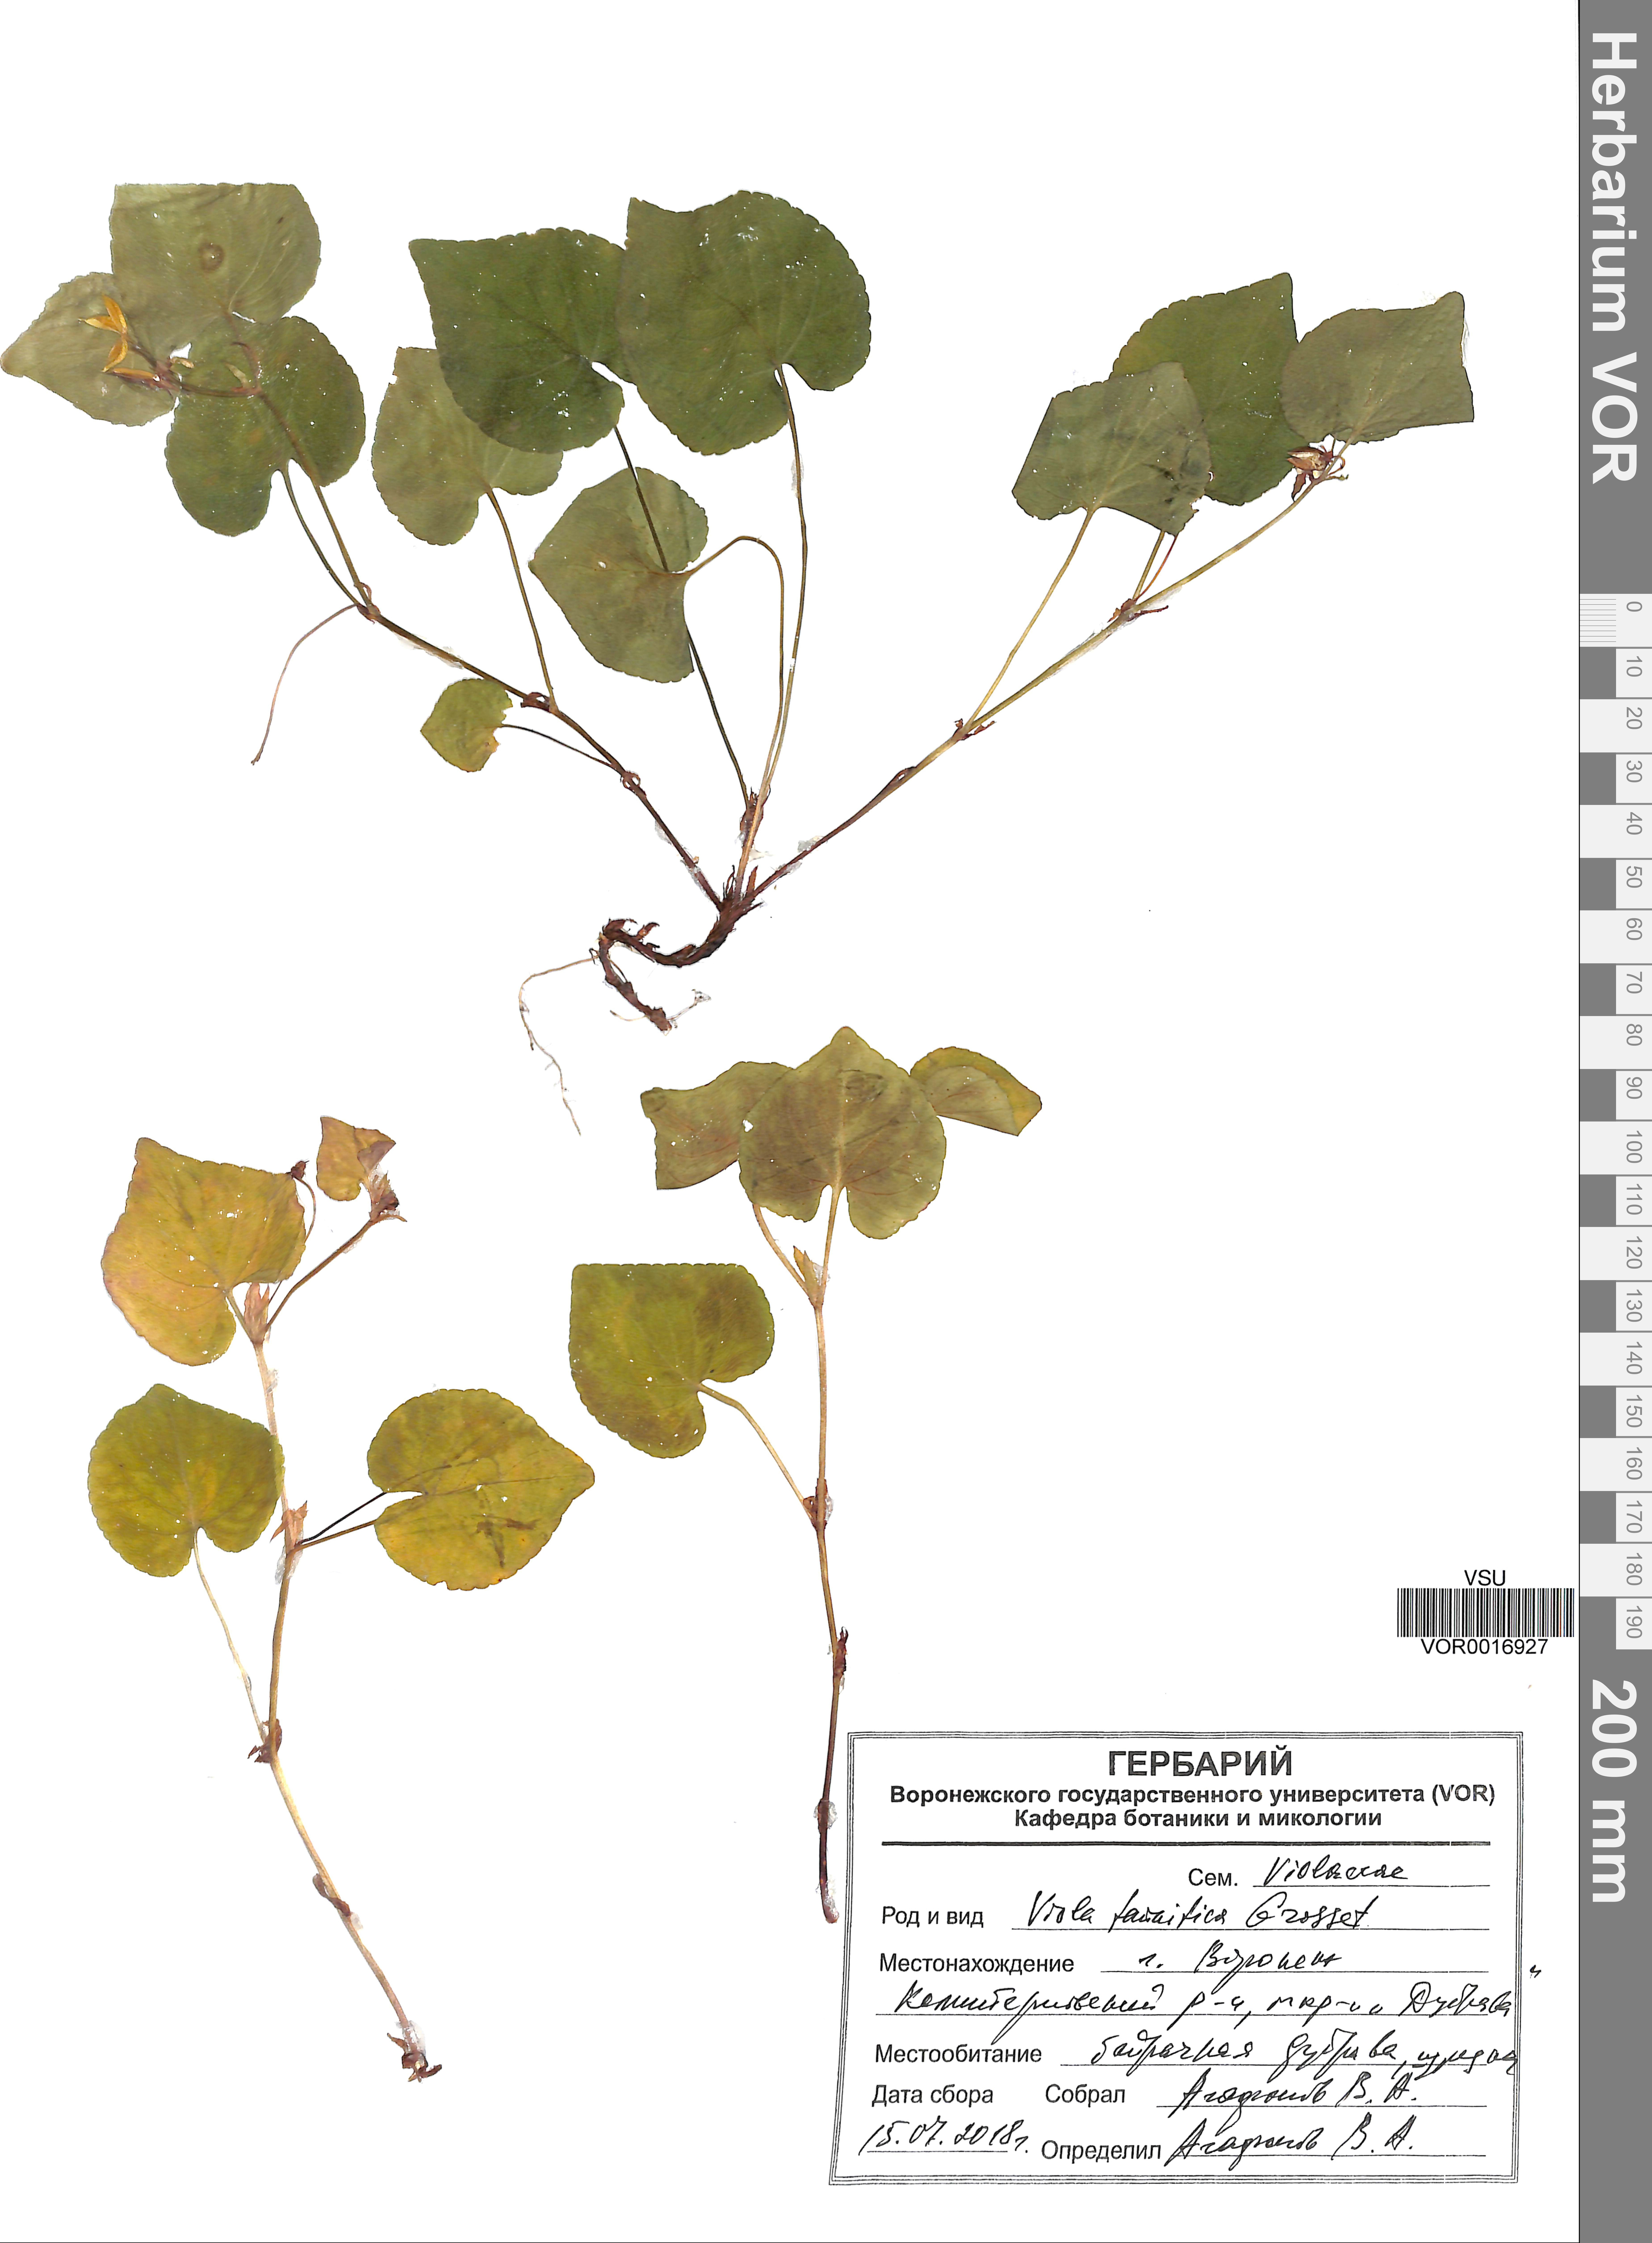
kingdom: Plantae
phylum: Tracheophyta
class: Magnoliopsida
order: Malpighiales
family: Violaceae
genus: Viola
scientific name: Viola tanaitica
